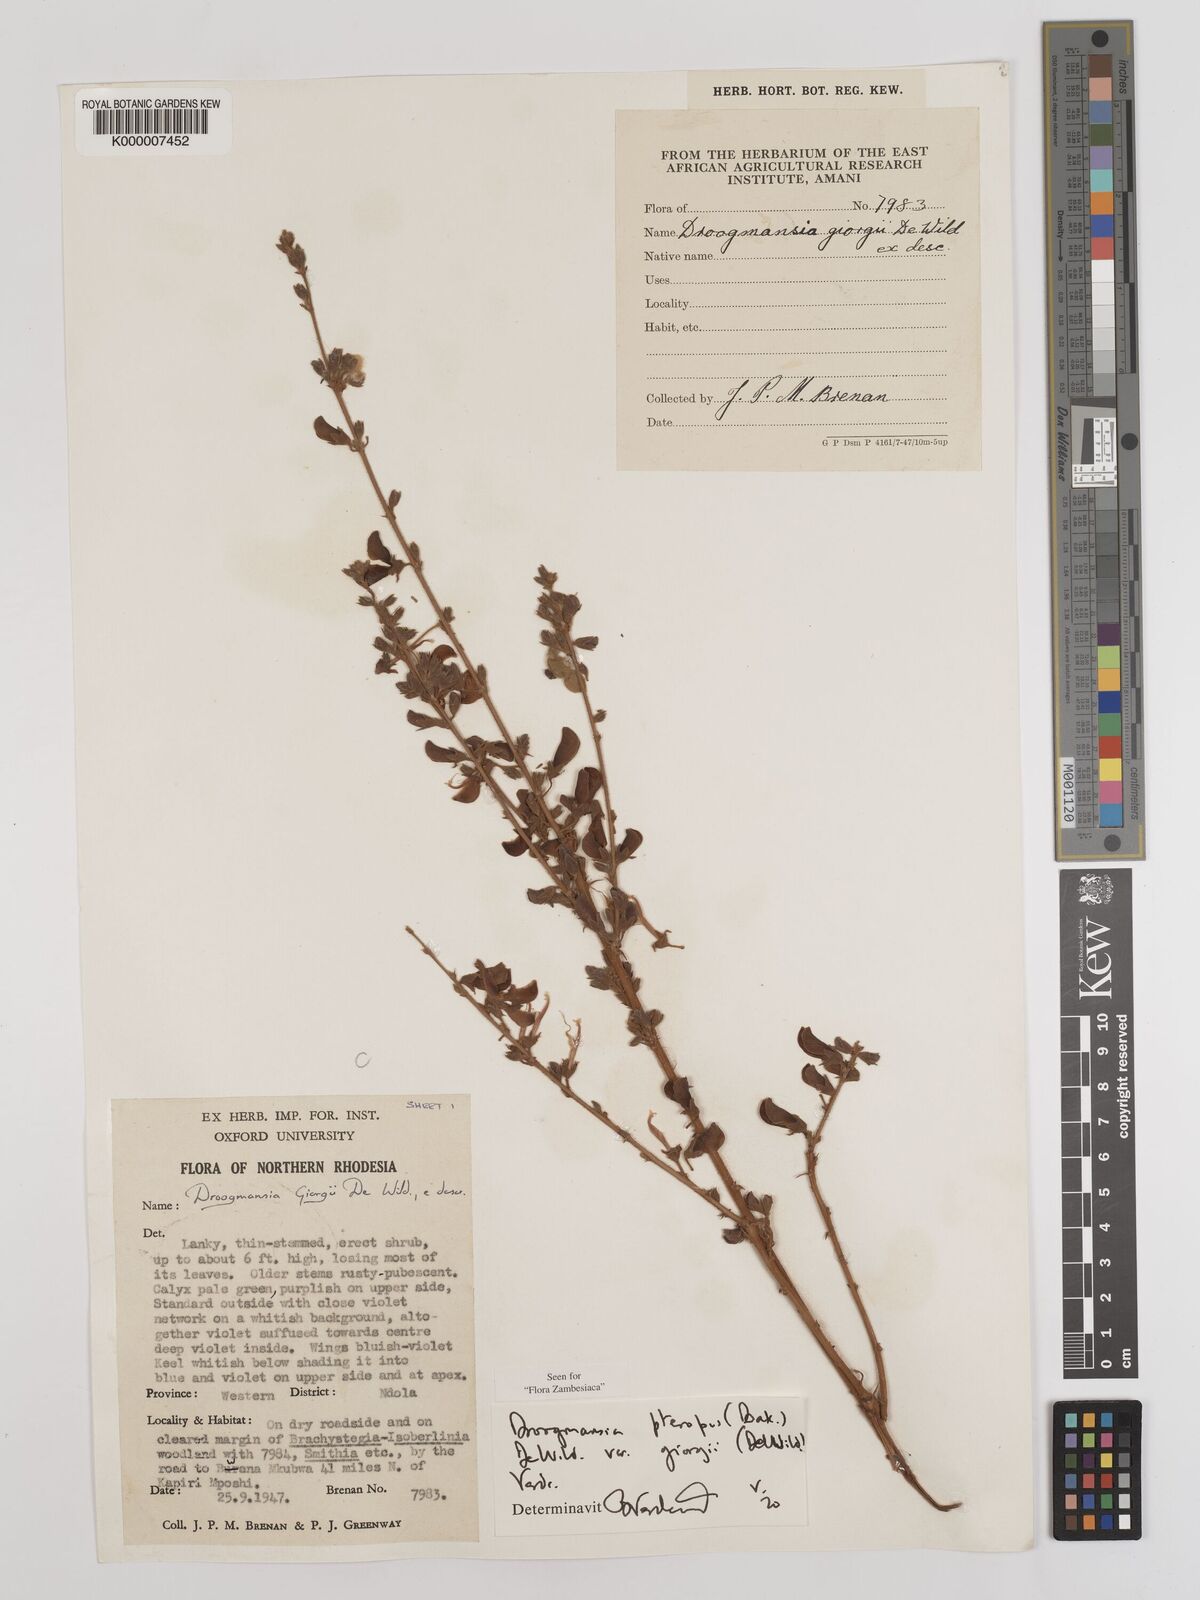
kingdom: Plantae
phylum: Tracheophyta
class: Magnoliopsida
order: Fabales
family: Fabaceae
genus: Droogmansia
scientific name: Droogmansia pteropus
